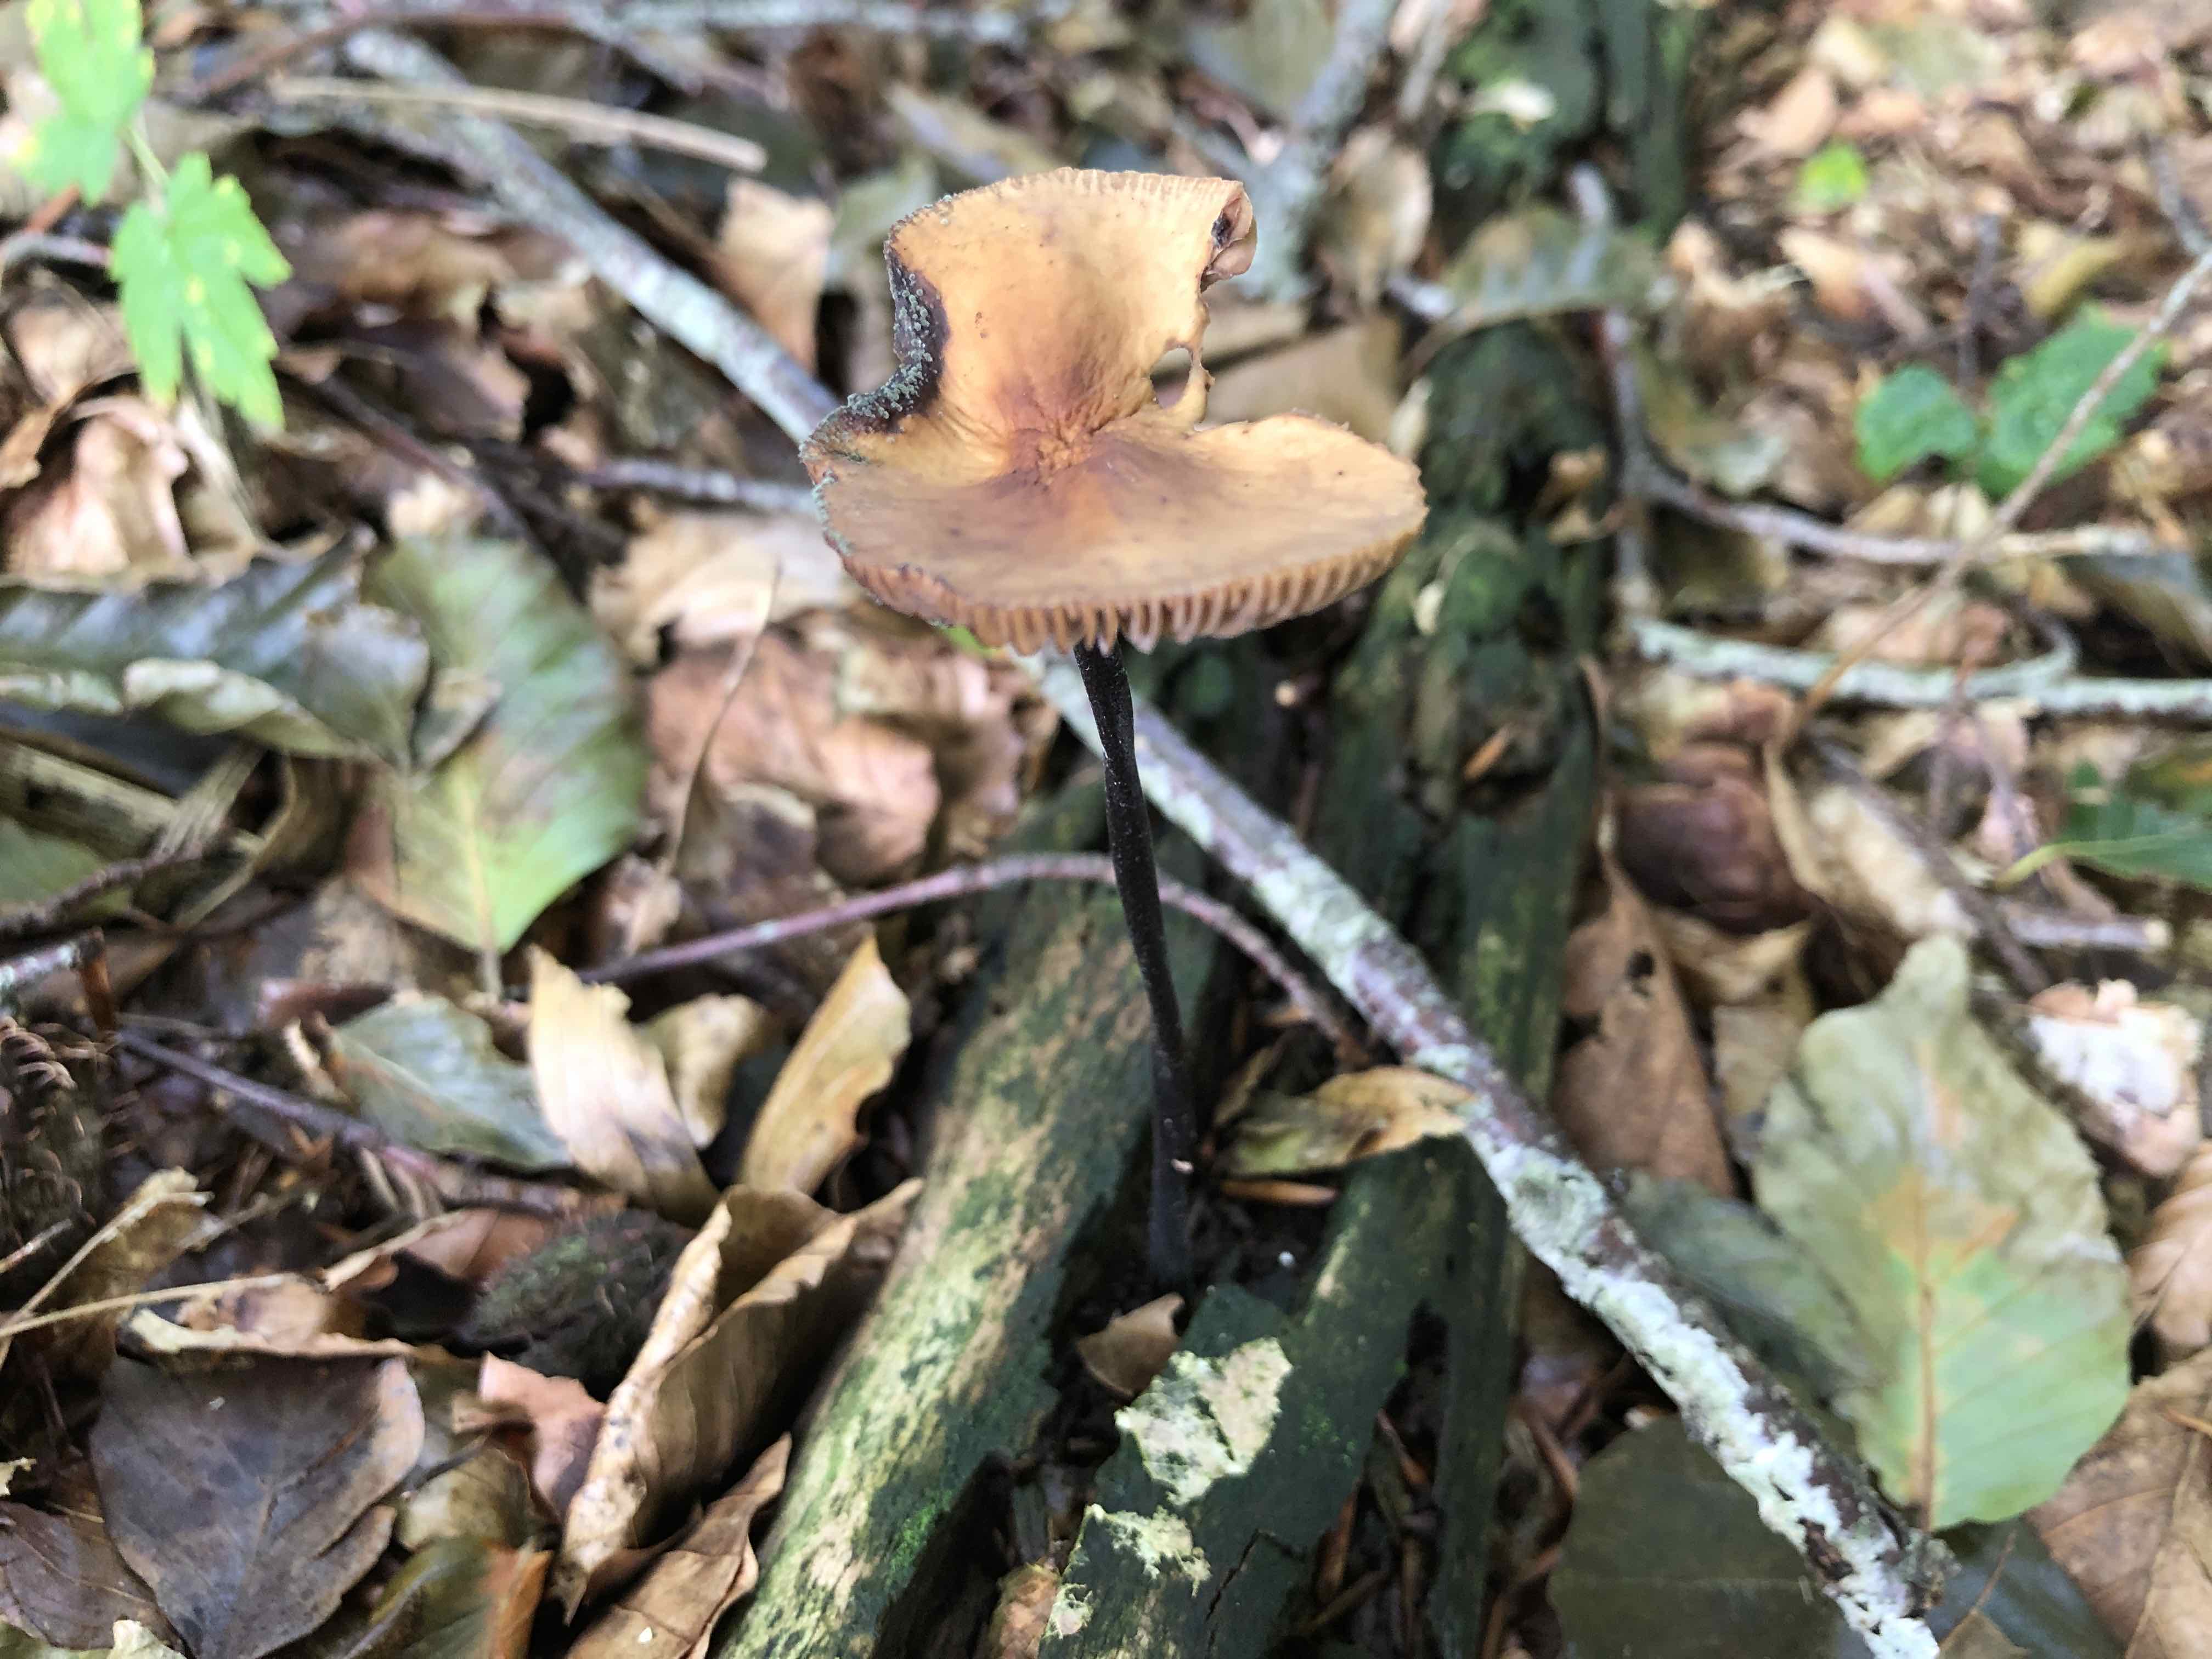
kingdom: Fungi
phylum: Basidiomycota
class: Agaricomycetes
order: Agaricales
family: Omphalotaceae
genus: Mycetinis
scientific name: Mycetinis alliaceus
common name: stor løghat
